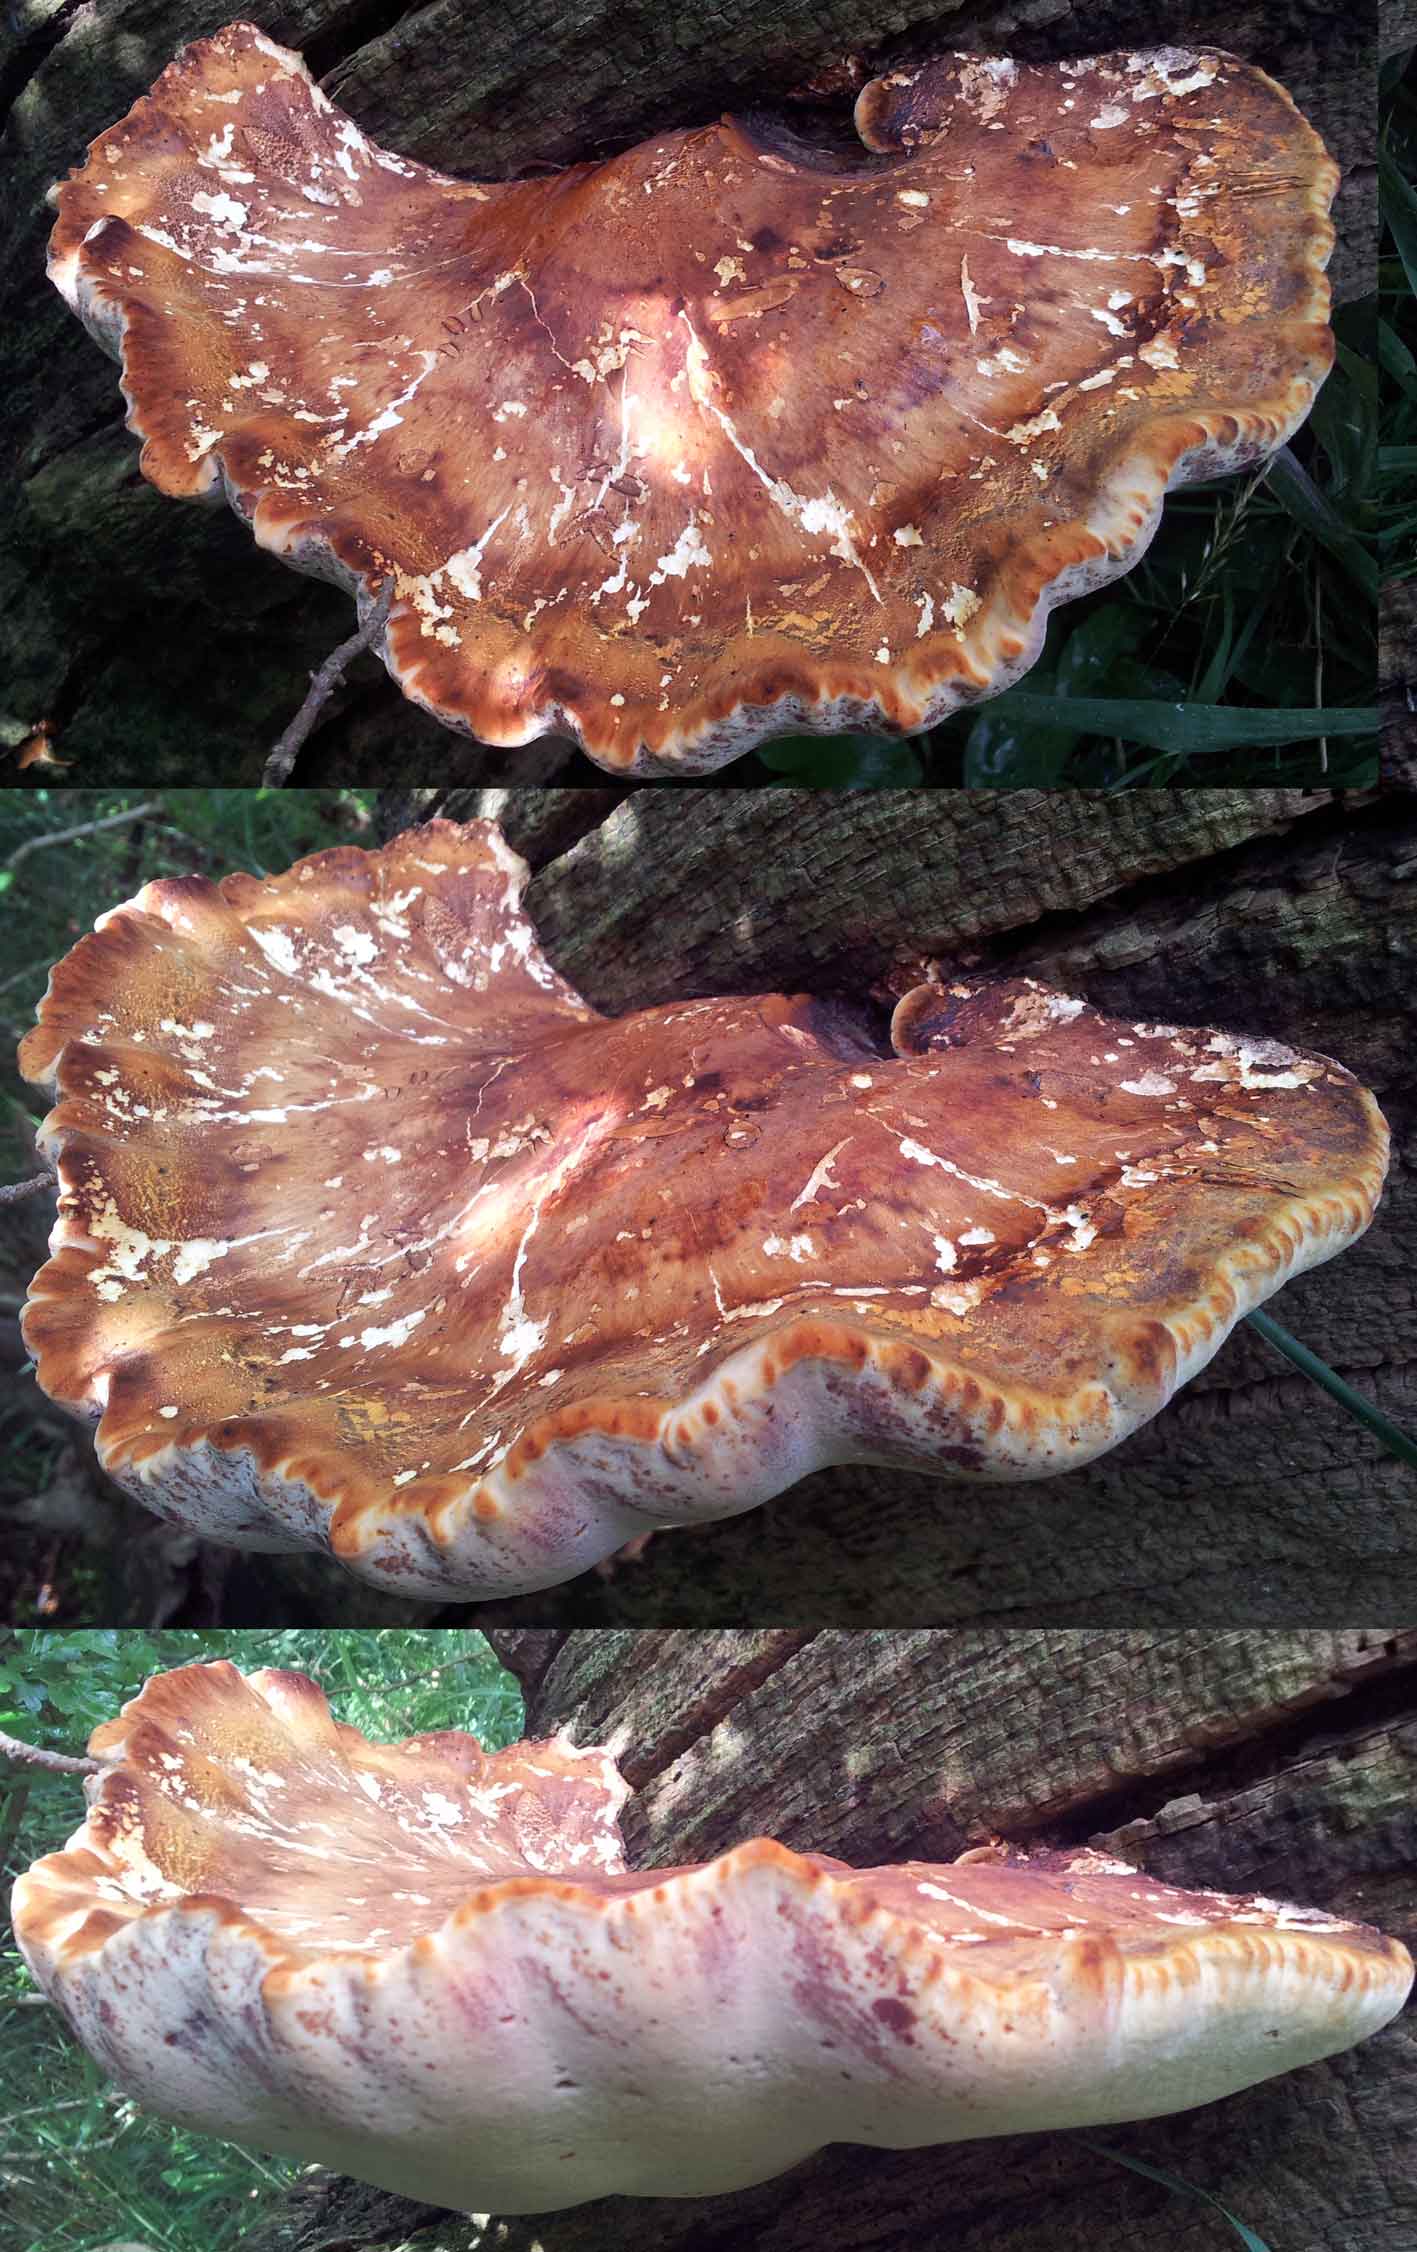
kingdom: Fungi
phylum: Basidiomycota
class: Agaricomycetes
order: Polyporales
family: Fomitopsidaceae
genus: Buglossoporus
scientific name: Buglossoporus quercinus
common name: egetunge
